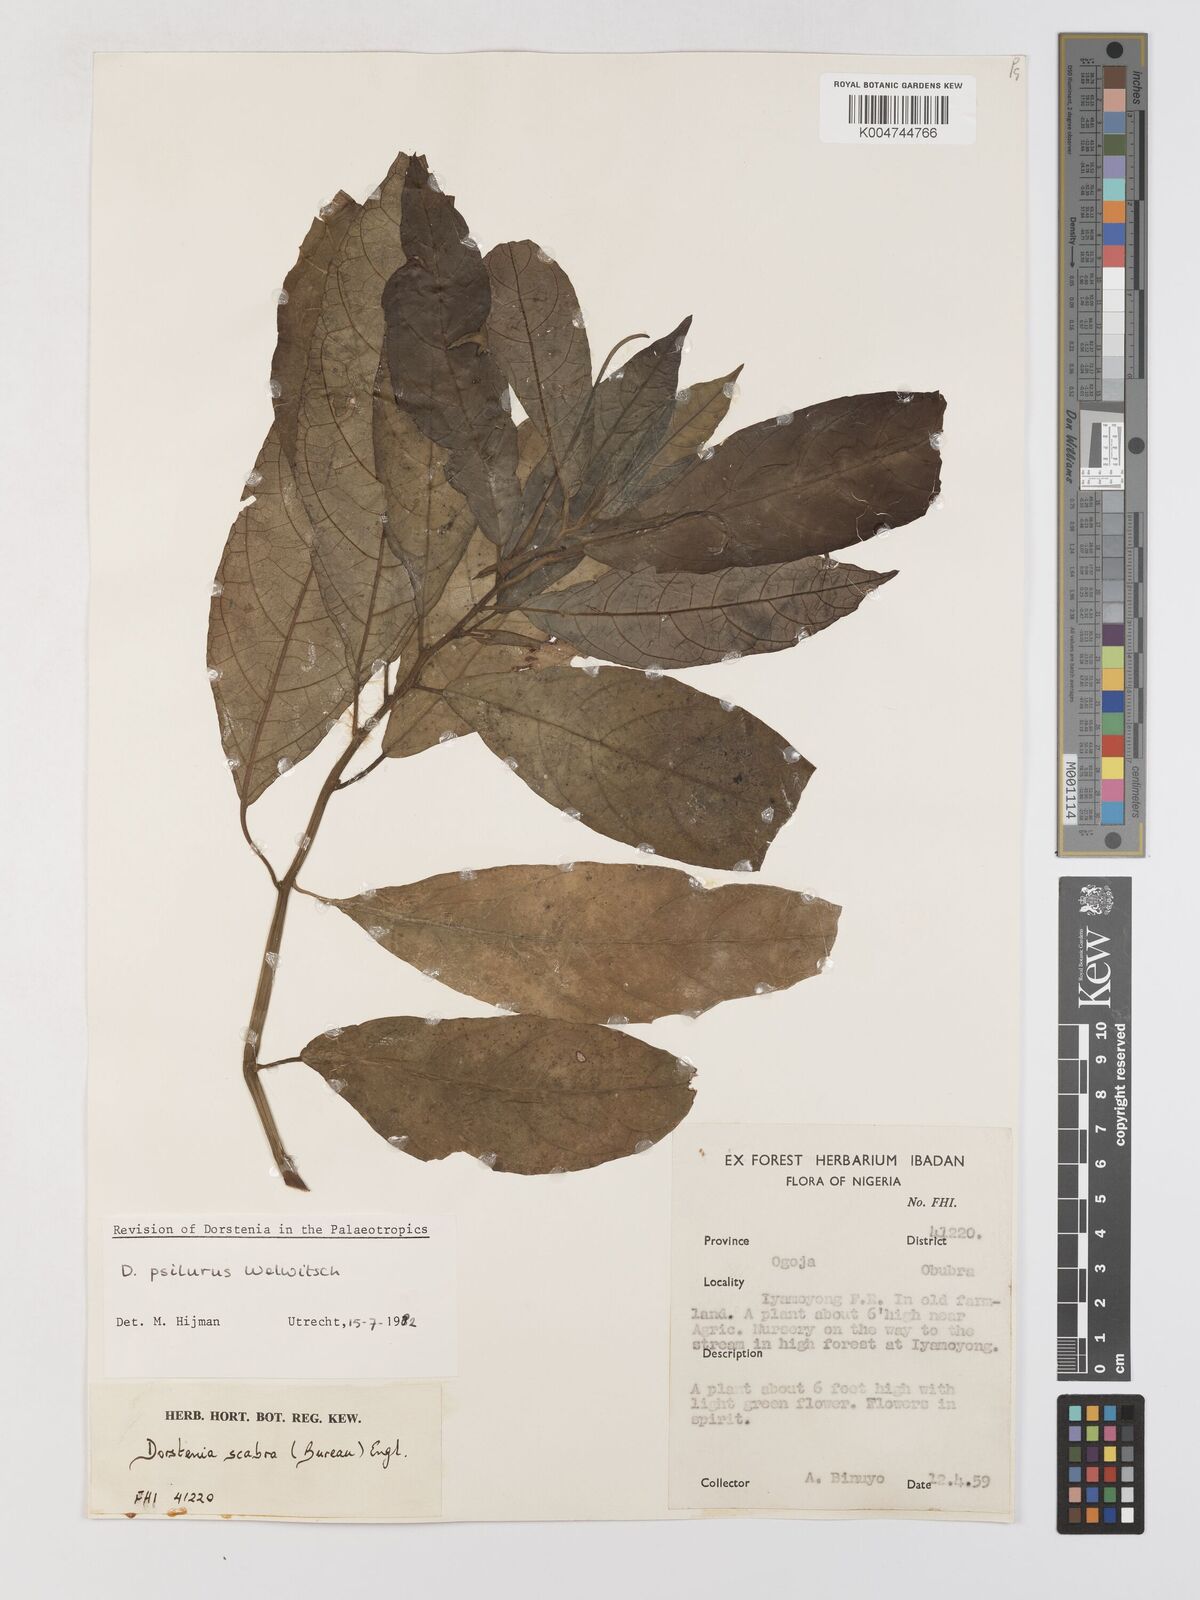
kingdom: Plantae
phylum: Tracheophyta
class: Magnoliopsida
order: Rosales
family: Moraceae
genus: Dorstenia
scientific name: Dorstenia psilurus
